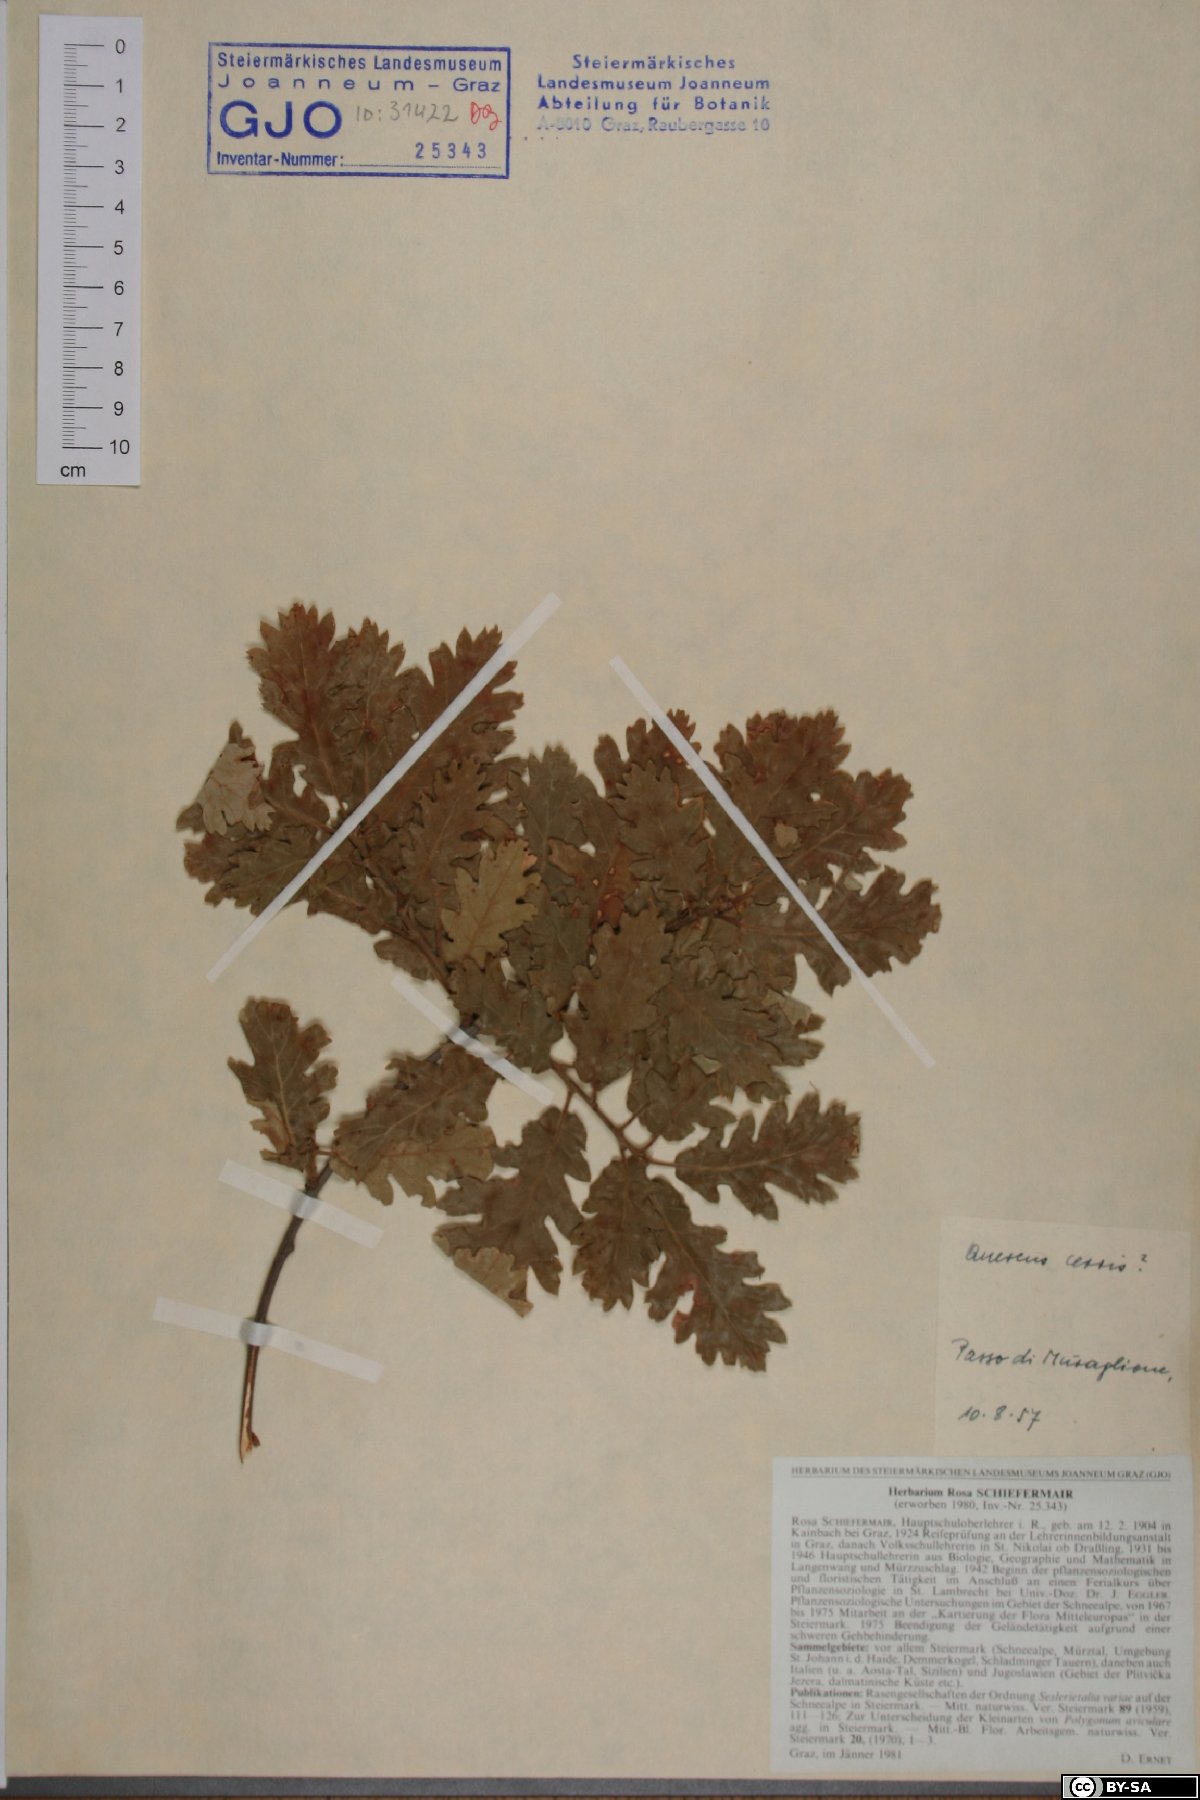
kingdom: Plantae
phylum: Tracheophyta
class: Magnoliopsida
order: Fagales
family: Fagaceae
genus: Quercus
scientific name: Quercus cerris
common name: Turkey oak
